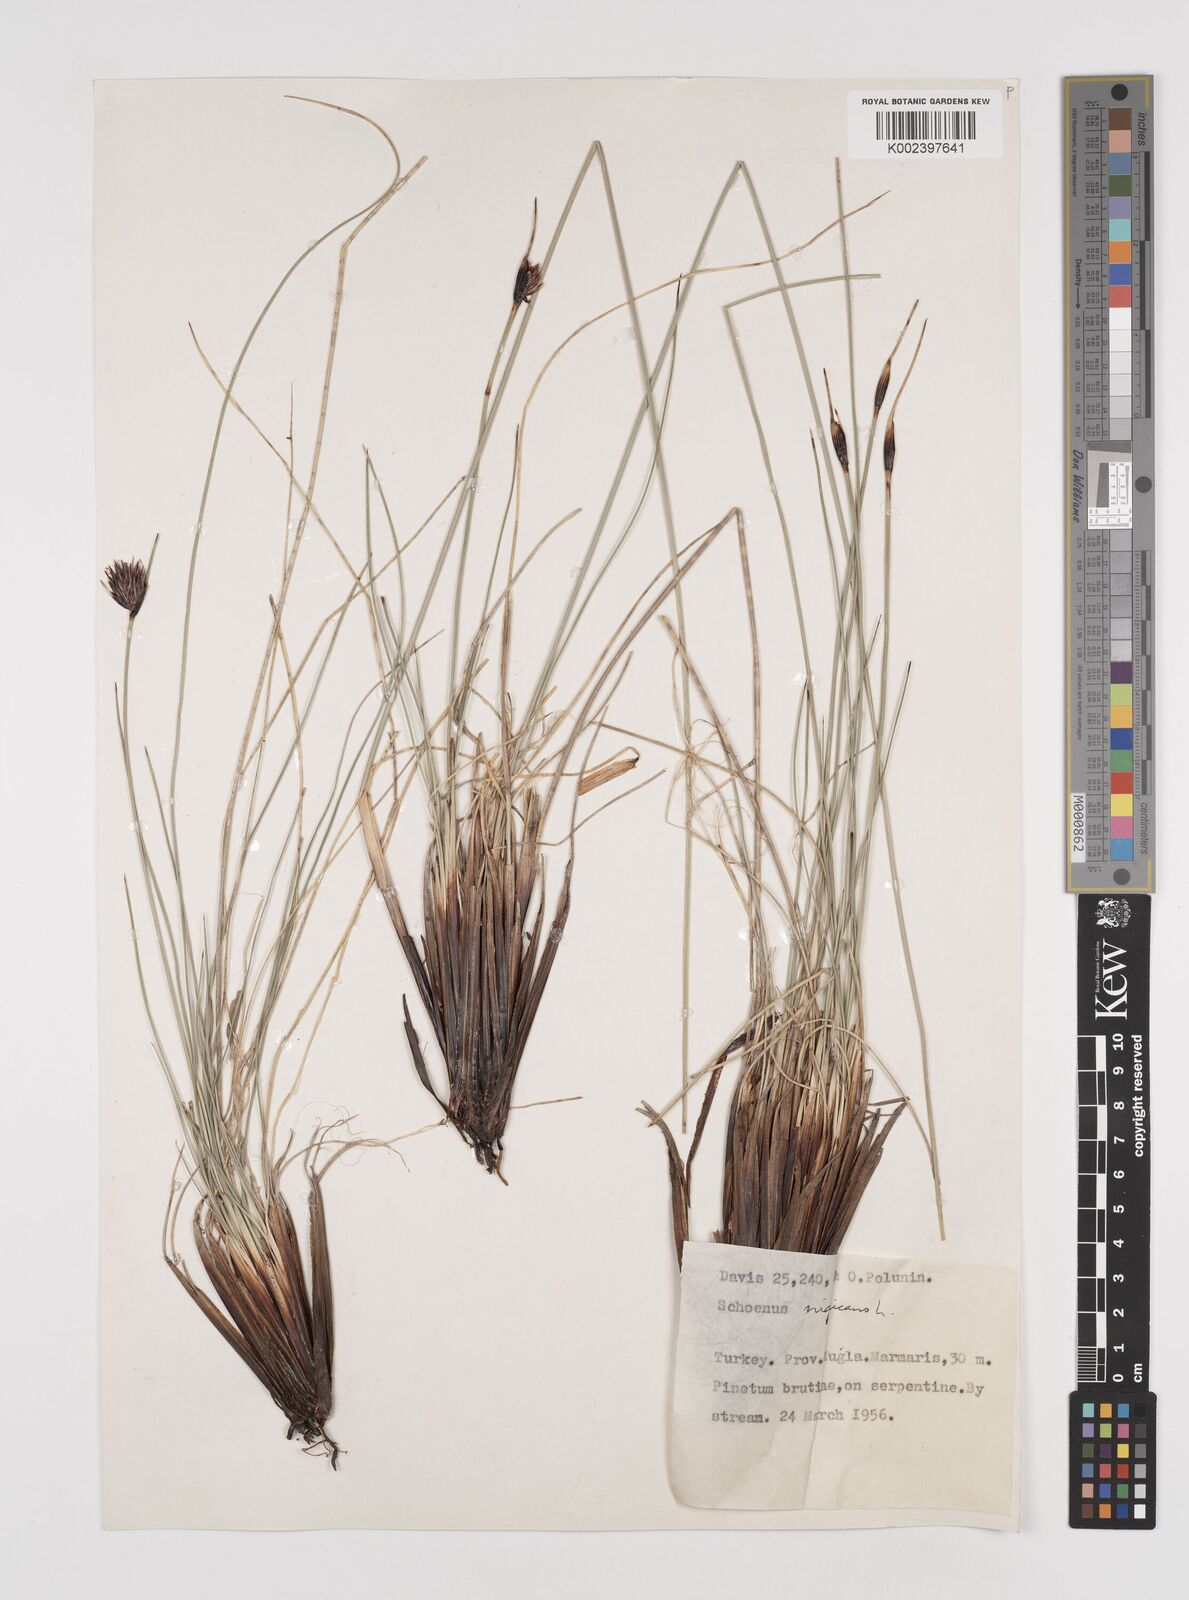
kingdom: Plantae
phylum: Tracheophyta
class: Liliopsida
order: Poales
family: Cyperaceae
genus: Schoenus
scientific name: Schoenus nigricans
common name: Black bog-rush
